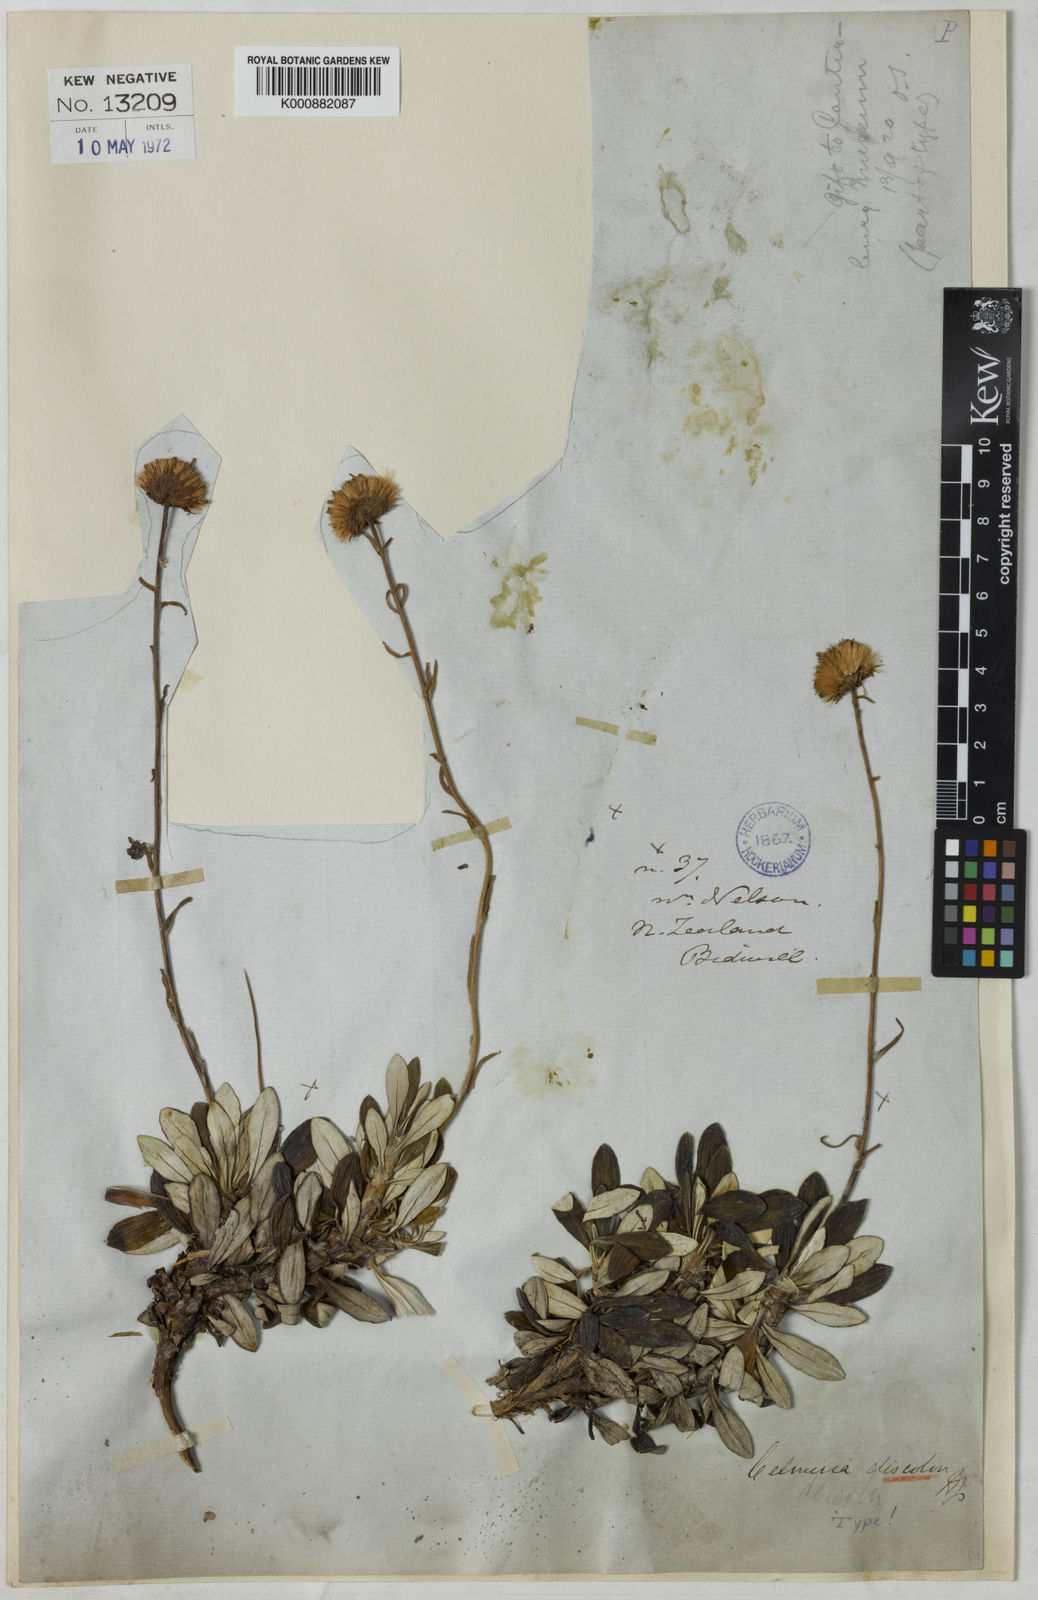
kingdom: Plantae
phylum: Tracheophyta
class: Magnoliopsida
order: Asterales
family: Asteraceae
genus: Celmisia
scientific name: Celmisia discolor
